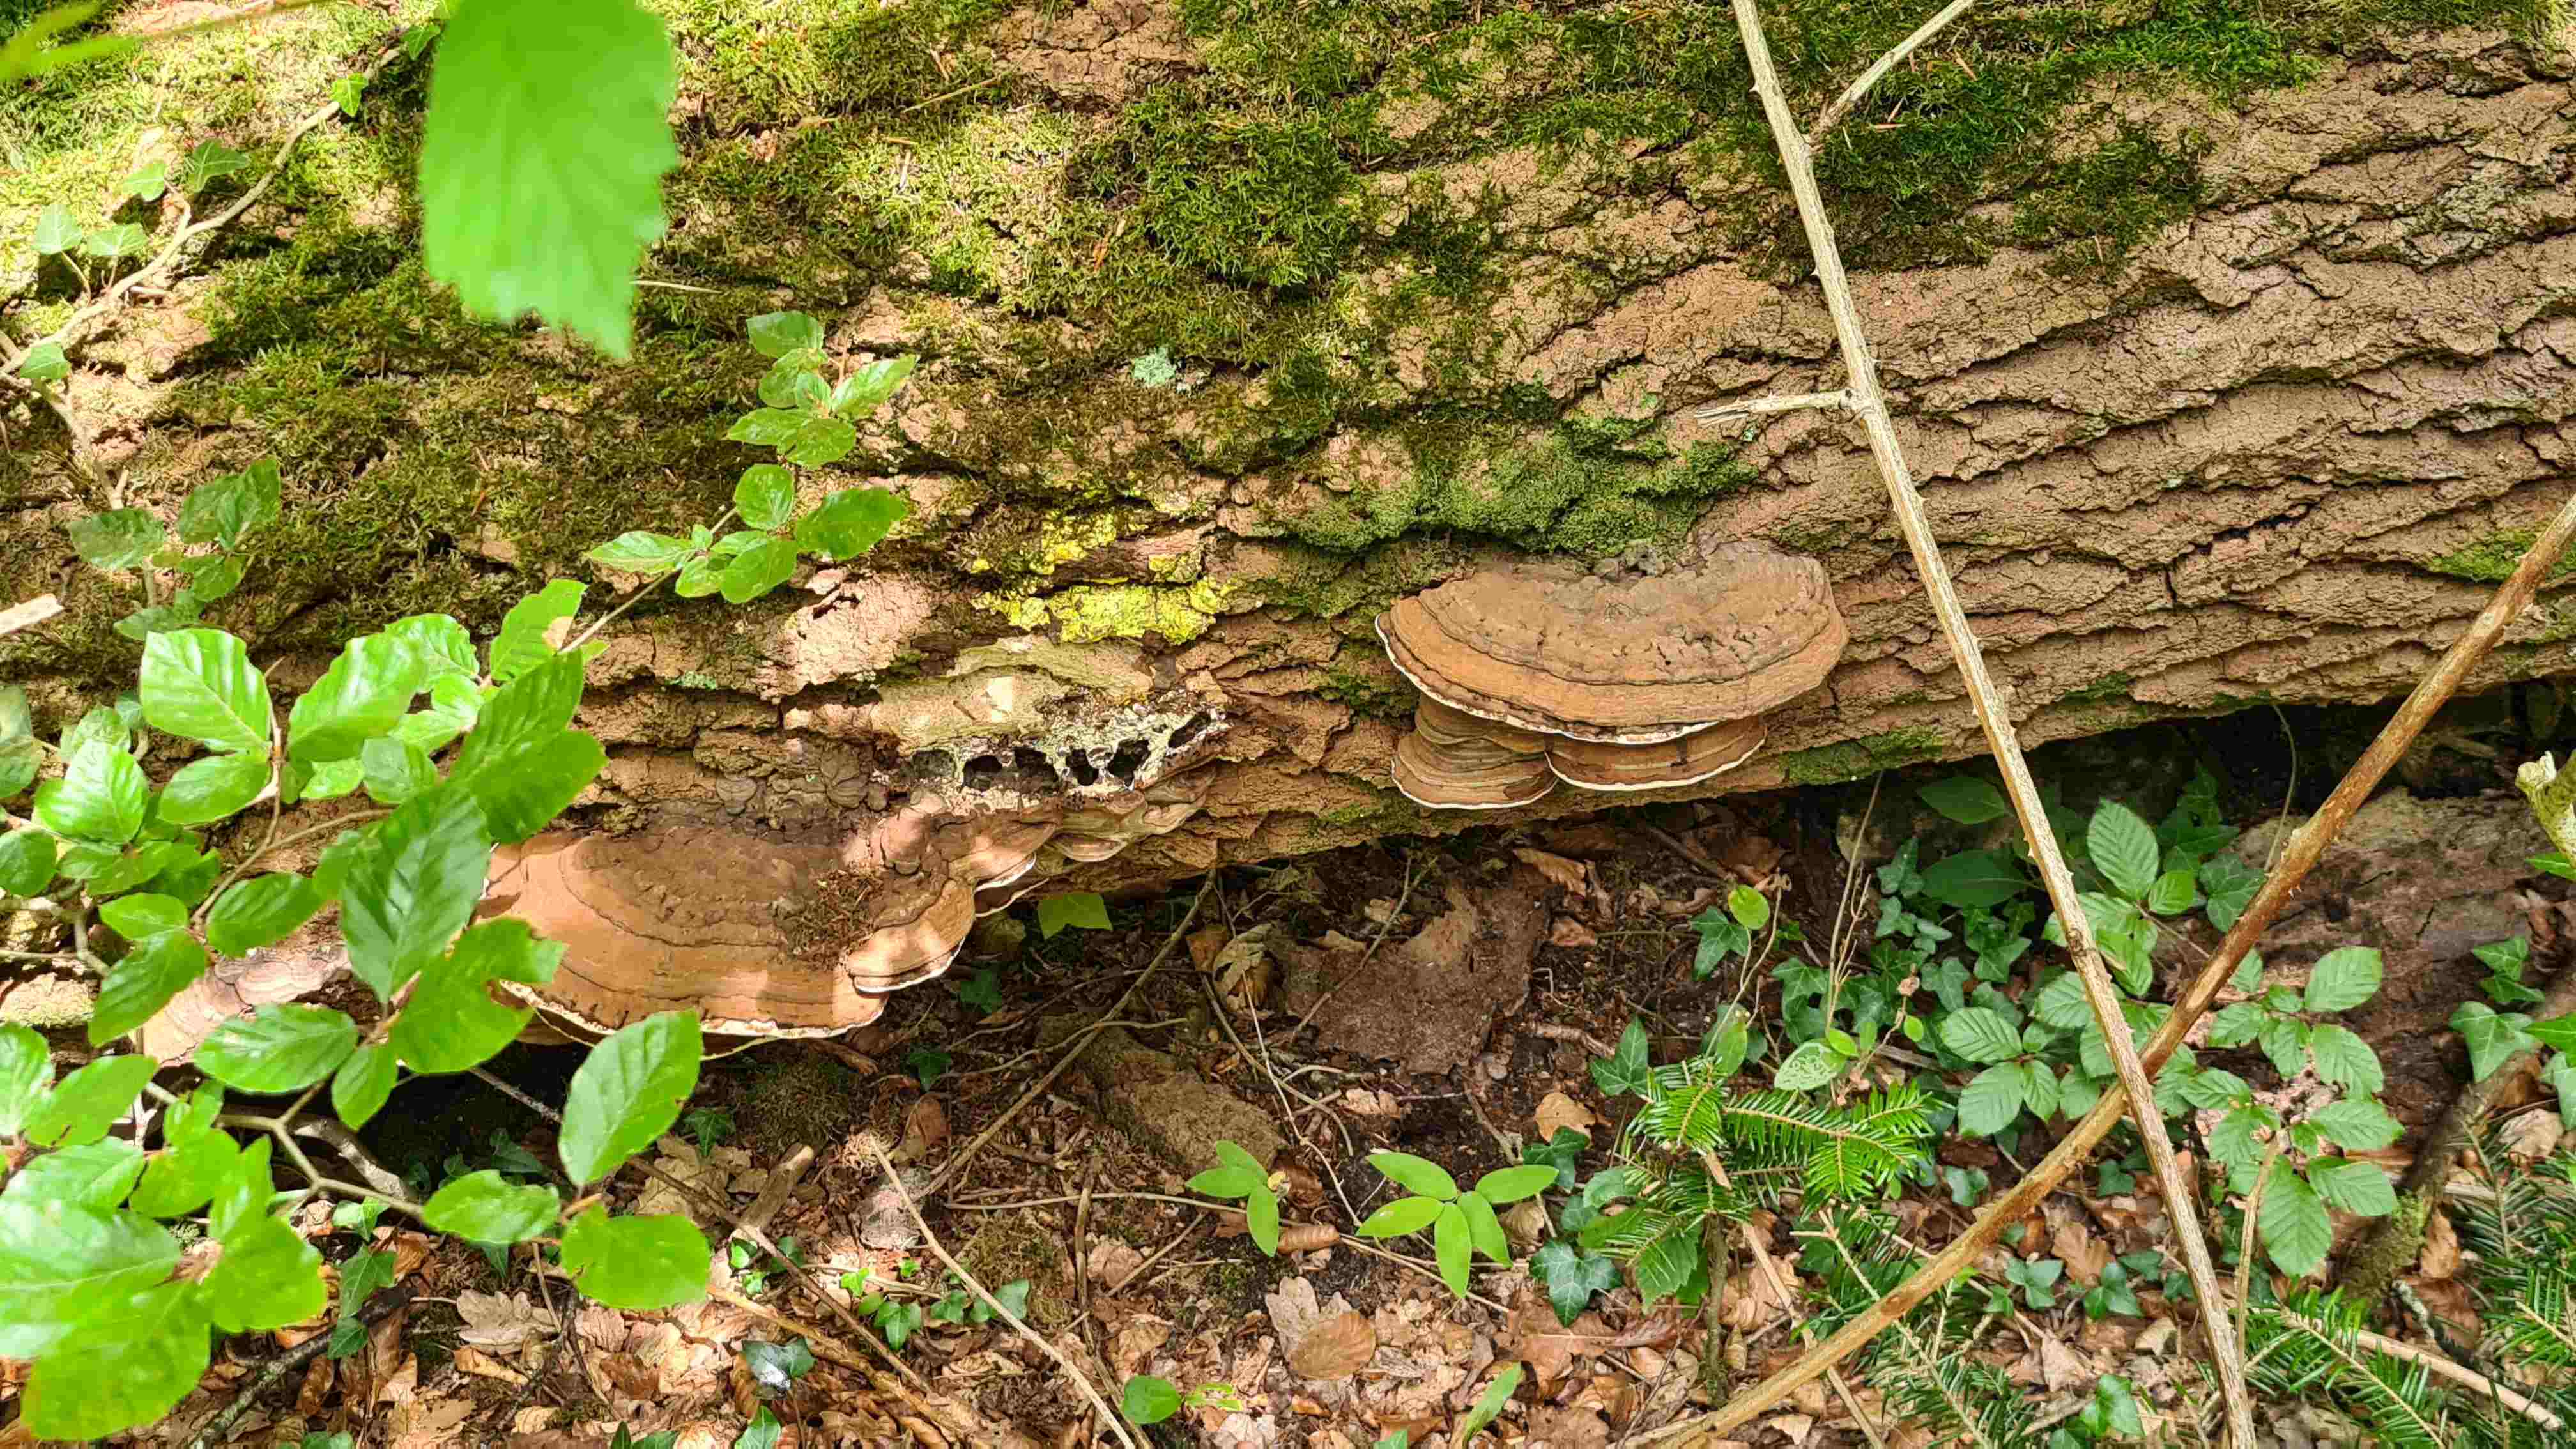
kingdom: Fungi
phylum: Basidiomycota
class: Agaricomycetes
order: Polyporales
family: Polyporaceae
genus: Ganoderma
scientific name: Ganoderma applanatum
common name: flad lakporesvamp
